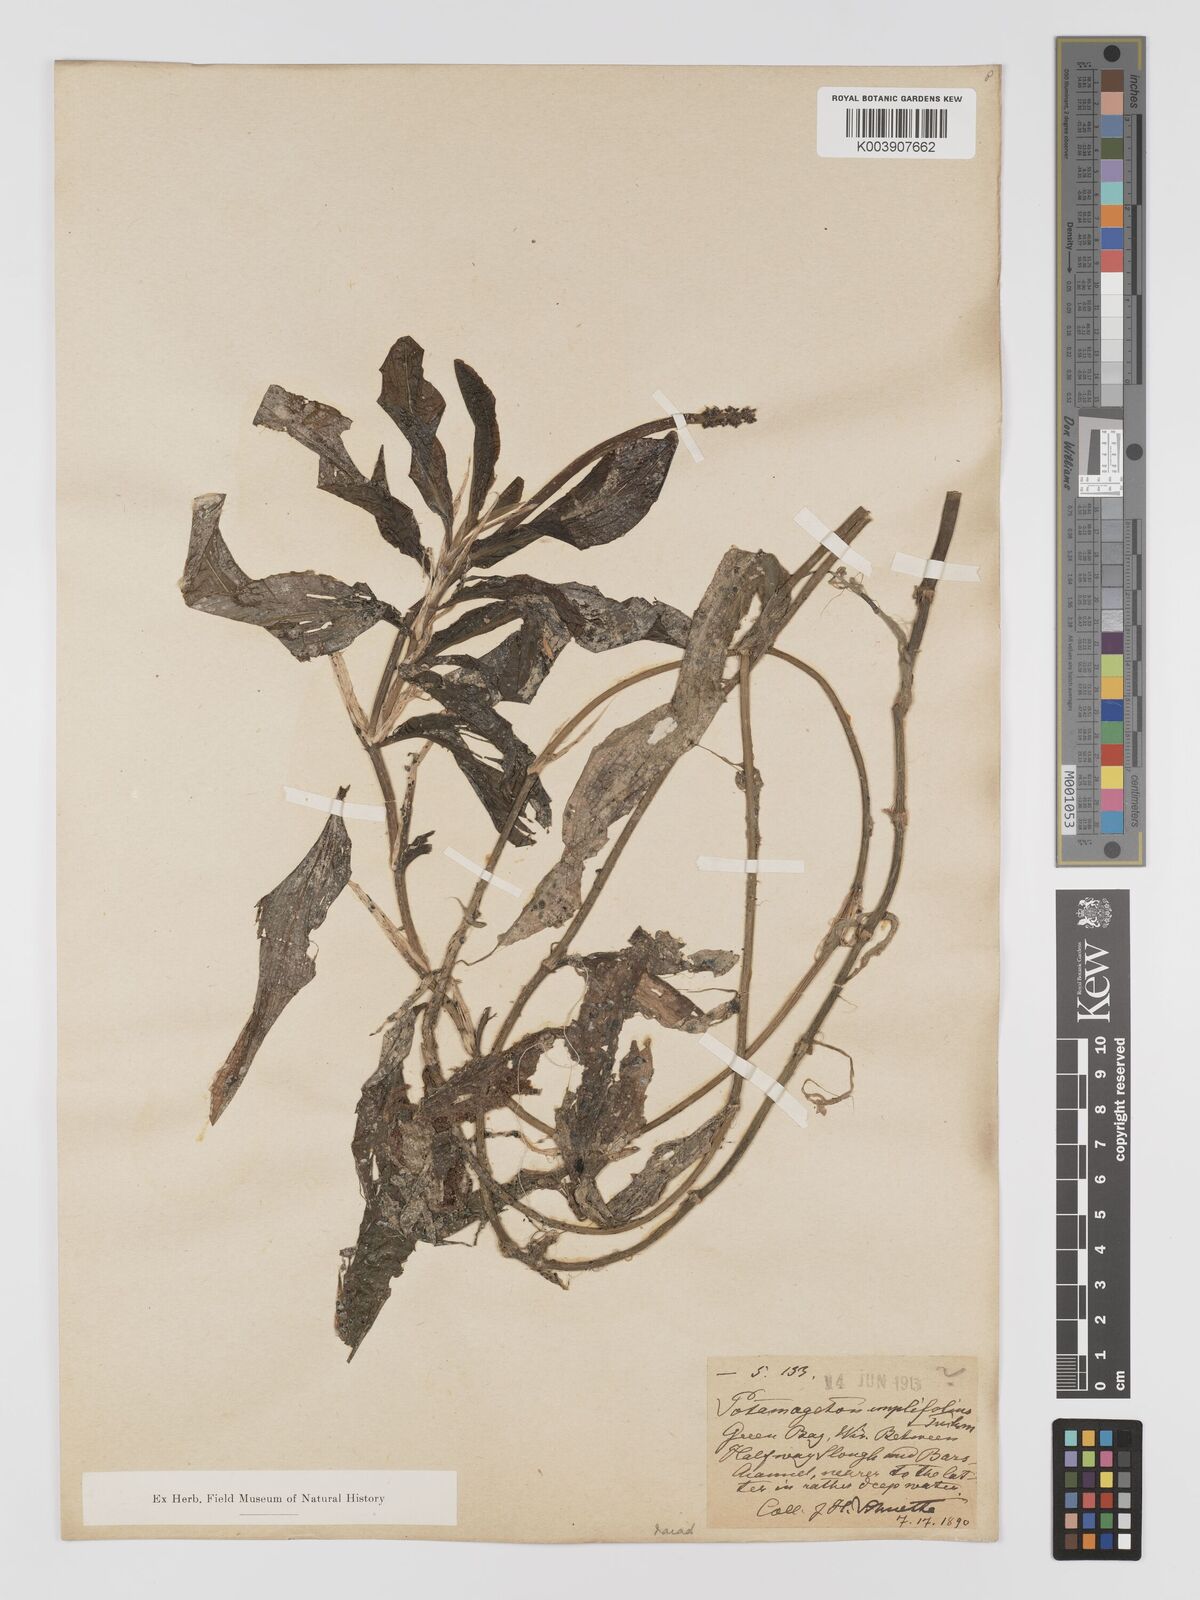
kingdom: Plantae
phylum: Tracheophyta
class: Liliopsida
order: Alismatales
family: Potamogetonaceae
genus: Potamogeton
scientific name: Potamogeton amplifolius
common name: Broad-leaved pondweed
